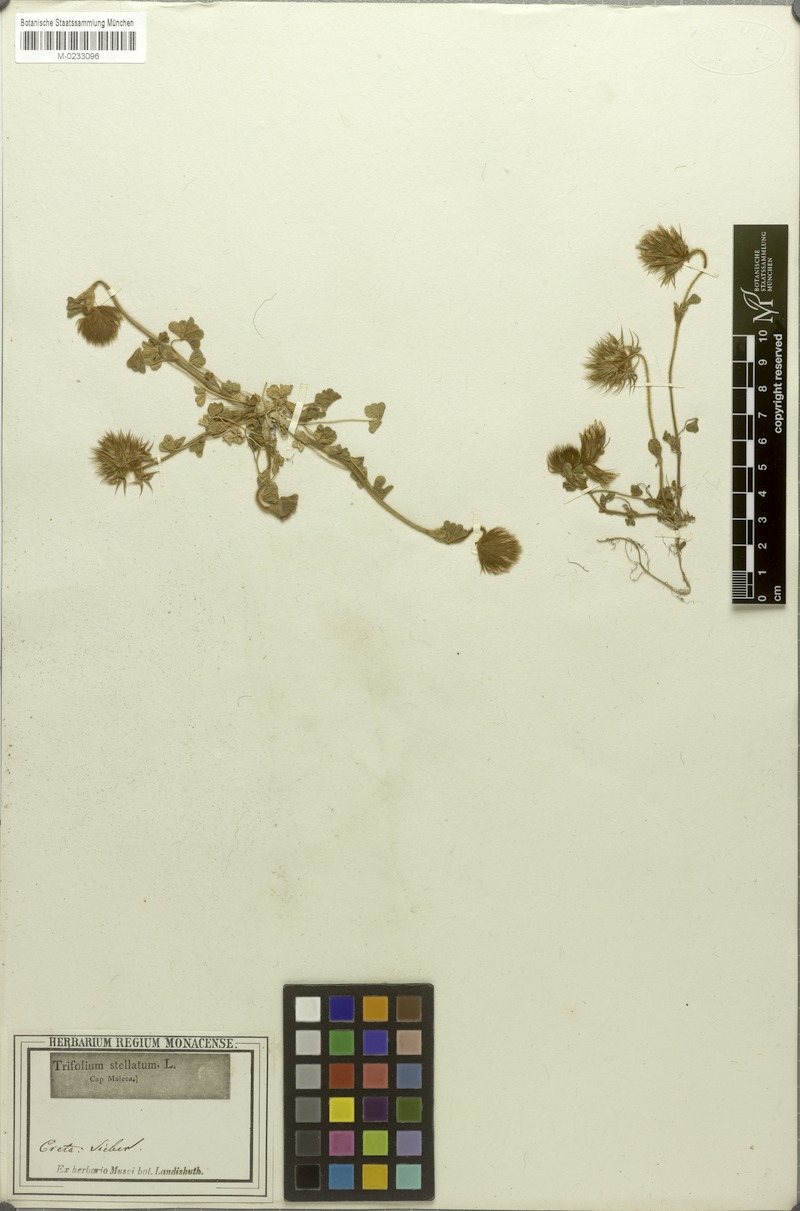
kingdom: Plantae
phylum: Tracheophyta
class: Magnoliopsida
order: Fabales
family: Fabaceae
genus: Trifolium
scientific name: Trifolium stellatum
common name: Starry clover
